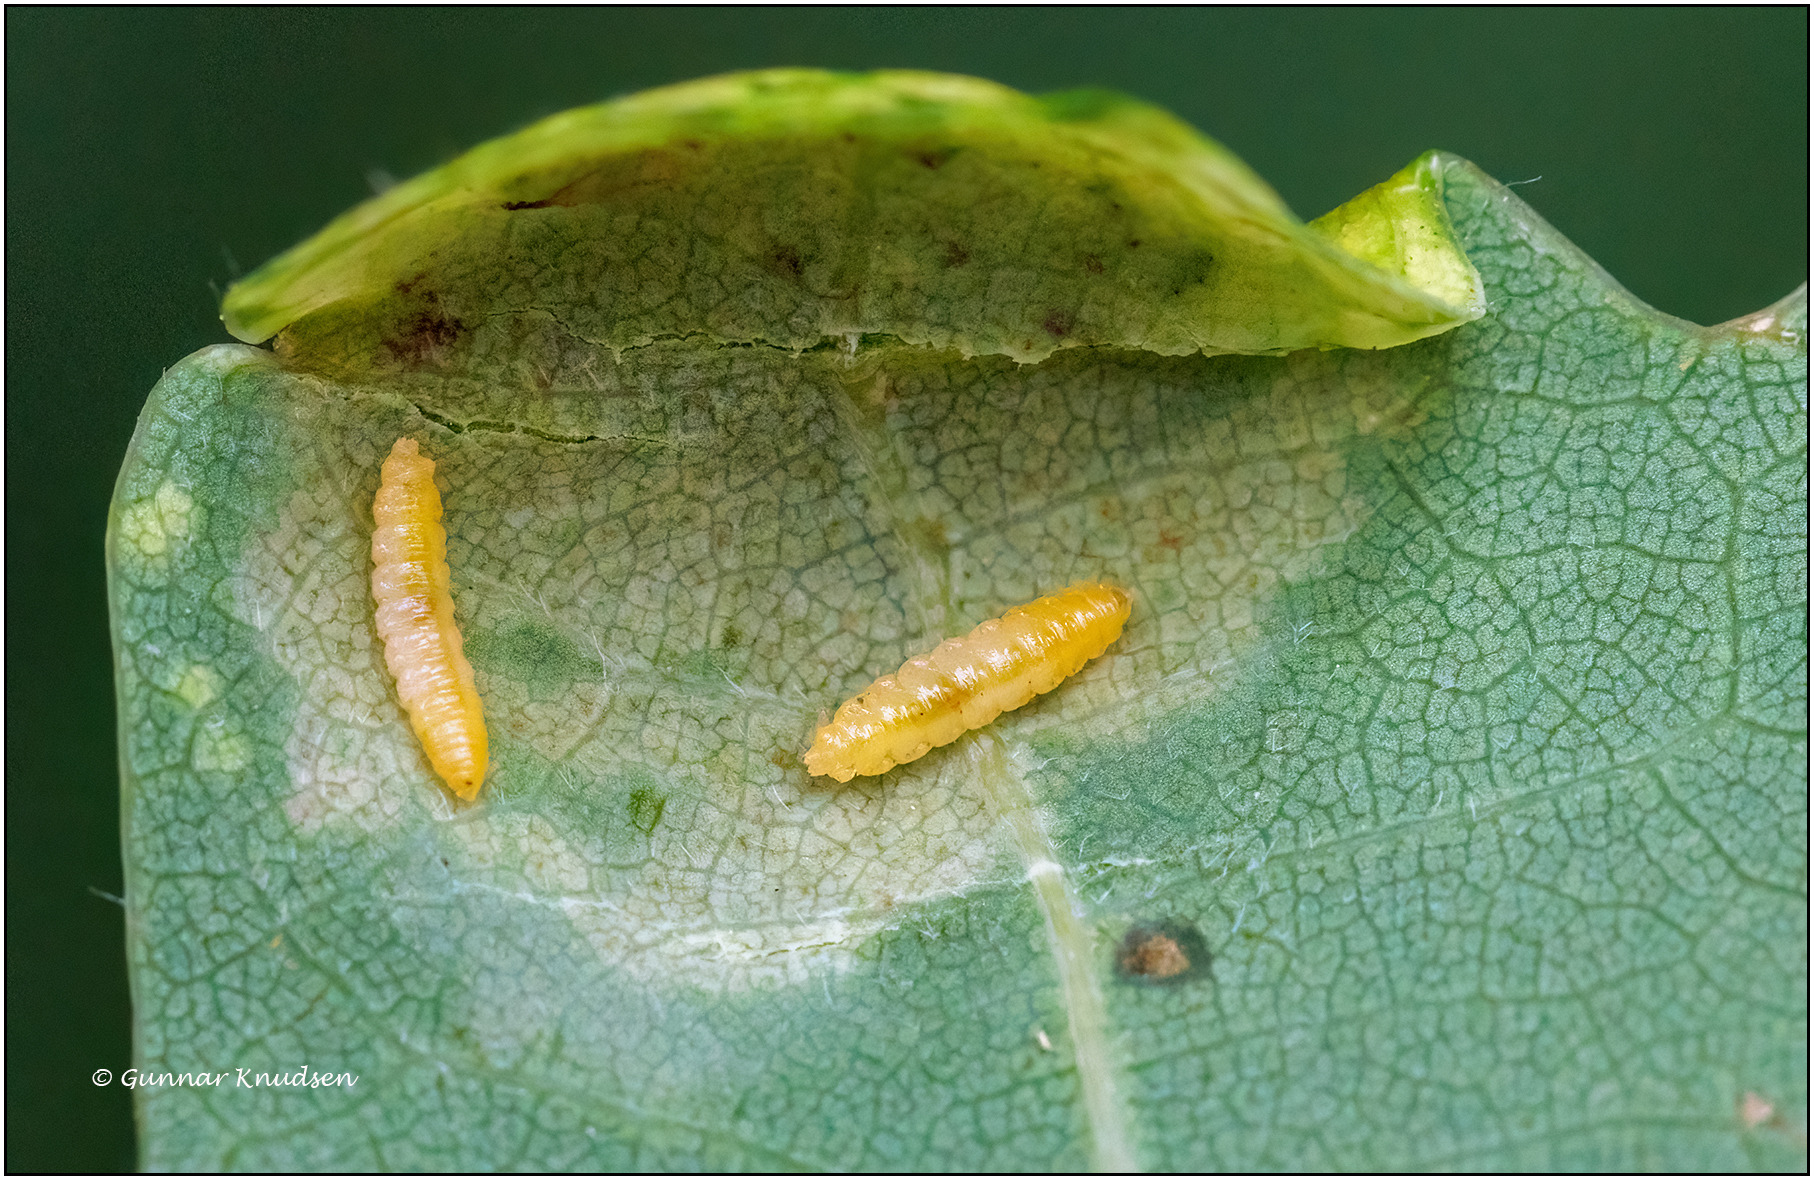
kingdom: Animalia
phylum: Arthropoda
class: Insecta
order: Diptera
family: Cecidomyiidae
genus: Macrodiplosis
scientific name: Macrodiplosis pustularis
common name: Marmorgalmyg
